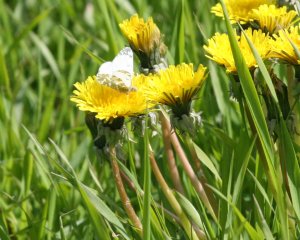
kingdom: Animalia
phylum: Arthropoda
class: Insecta
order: Lepidoptera
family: Pieridae
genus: Euchloe
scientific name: Euchloe ausonides
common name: Large Marble
